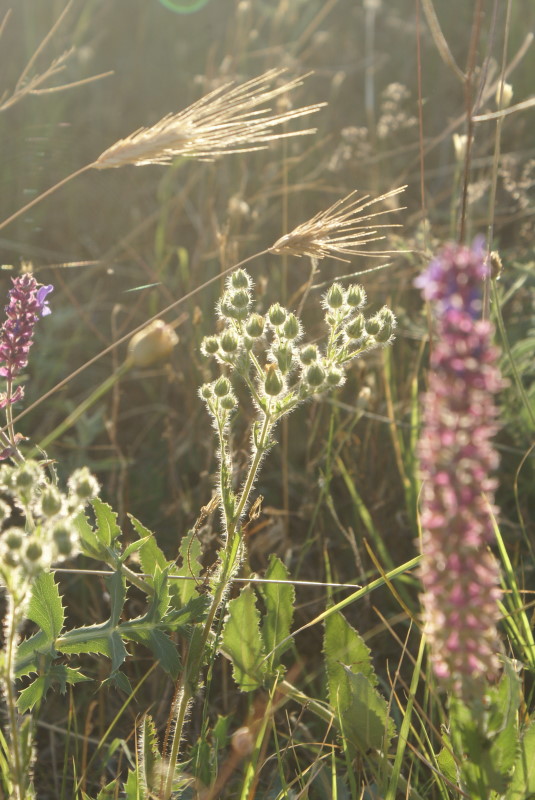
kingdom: Plantae
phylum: Tracheophyta
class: Magnoliopsida
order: Rosales
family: Rosaceae
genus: Potentilla
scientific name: Potentilla
